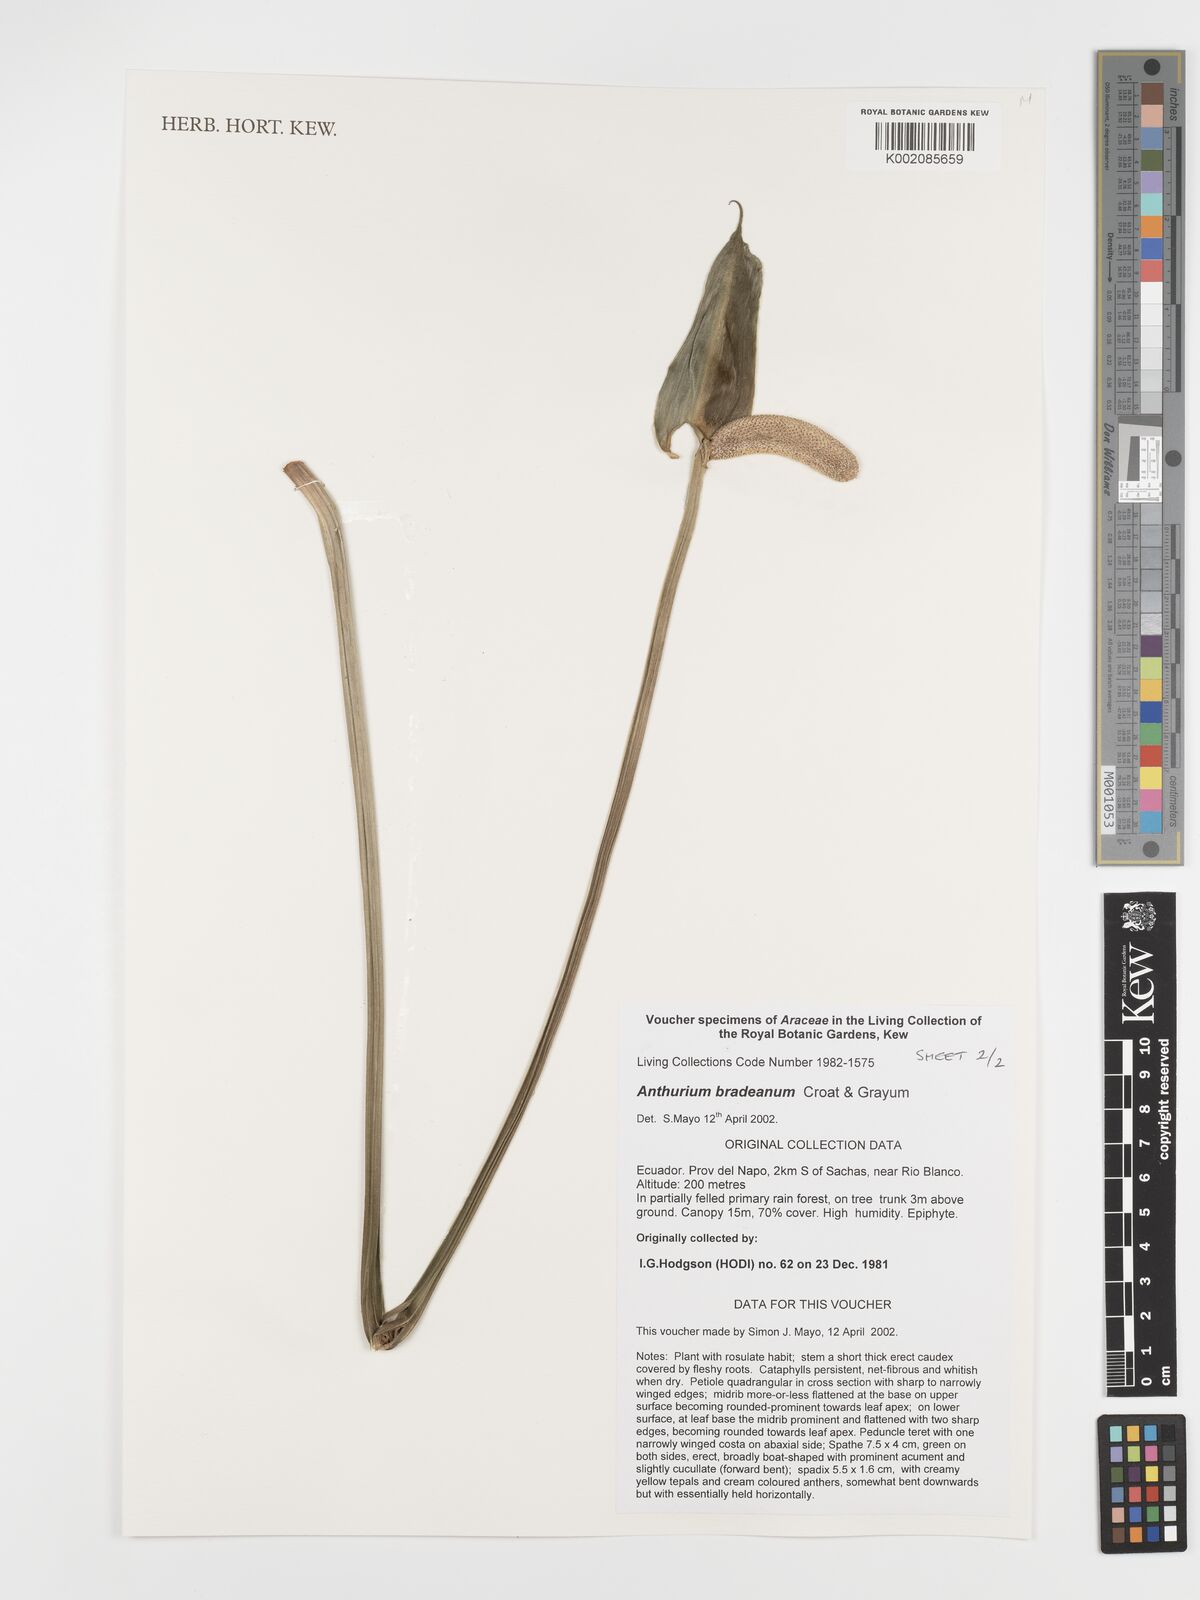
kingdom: Plantae
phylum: Tracheophyta
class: Liliopsida
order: Alismatales
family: Araceae
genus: Anthurium
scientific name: Anthurium bradeanum
